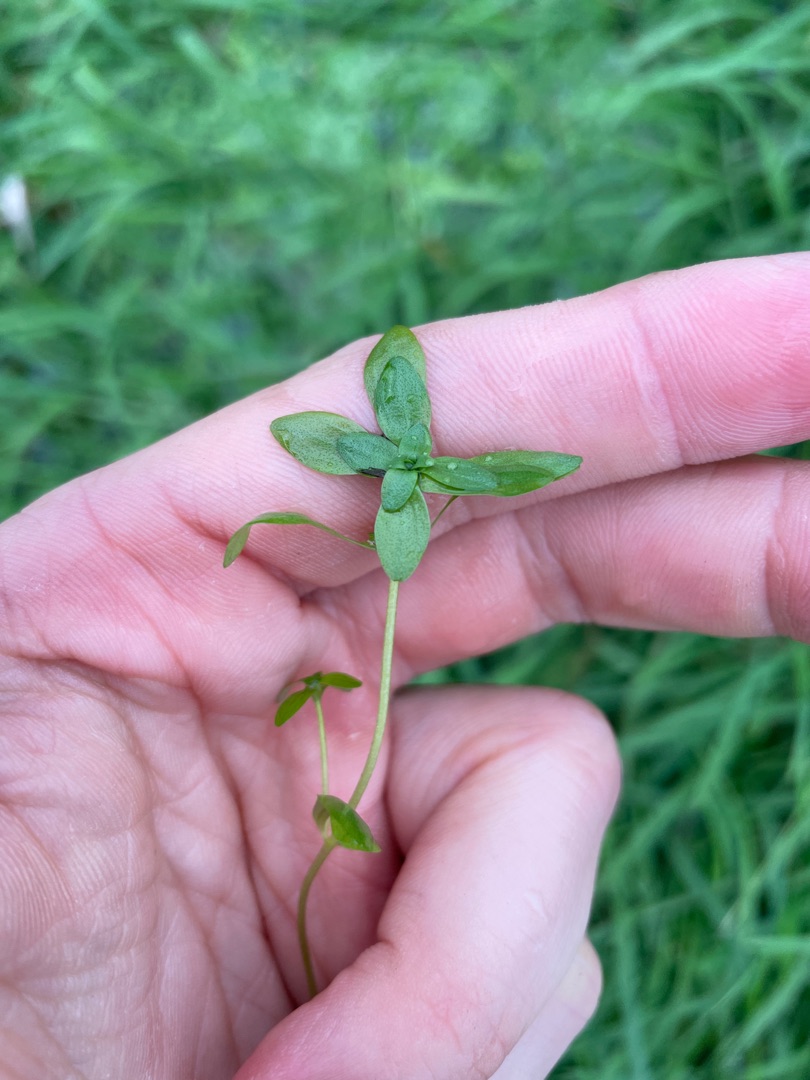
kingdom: Plantae
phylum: Tracheophyta
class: Magnoliopsida
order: Lamiales
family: Plantaginaceae
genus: Callitriche
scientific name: Callitriche
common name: Vandstjerneslægten
